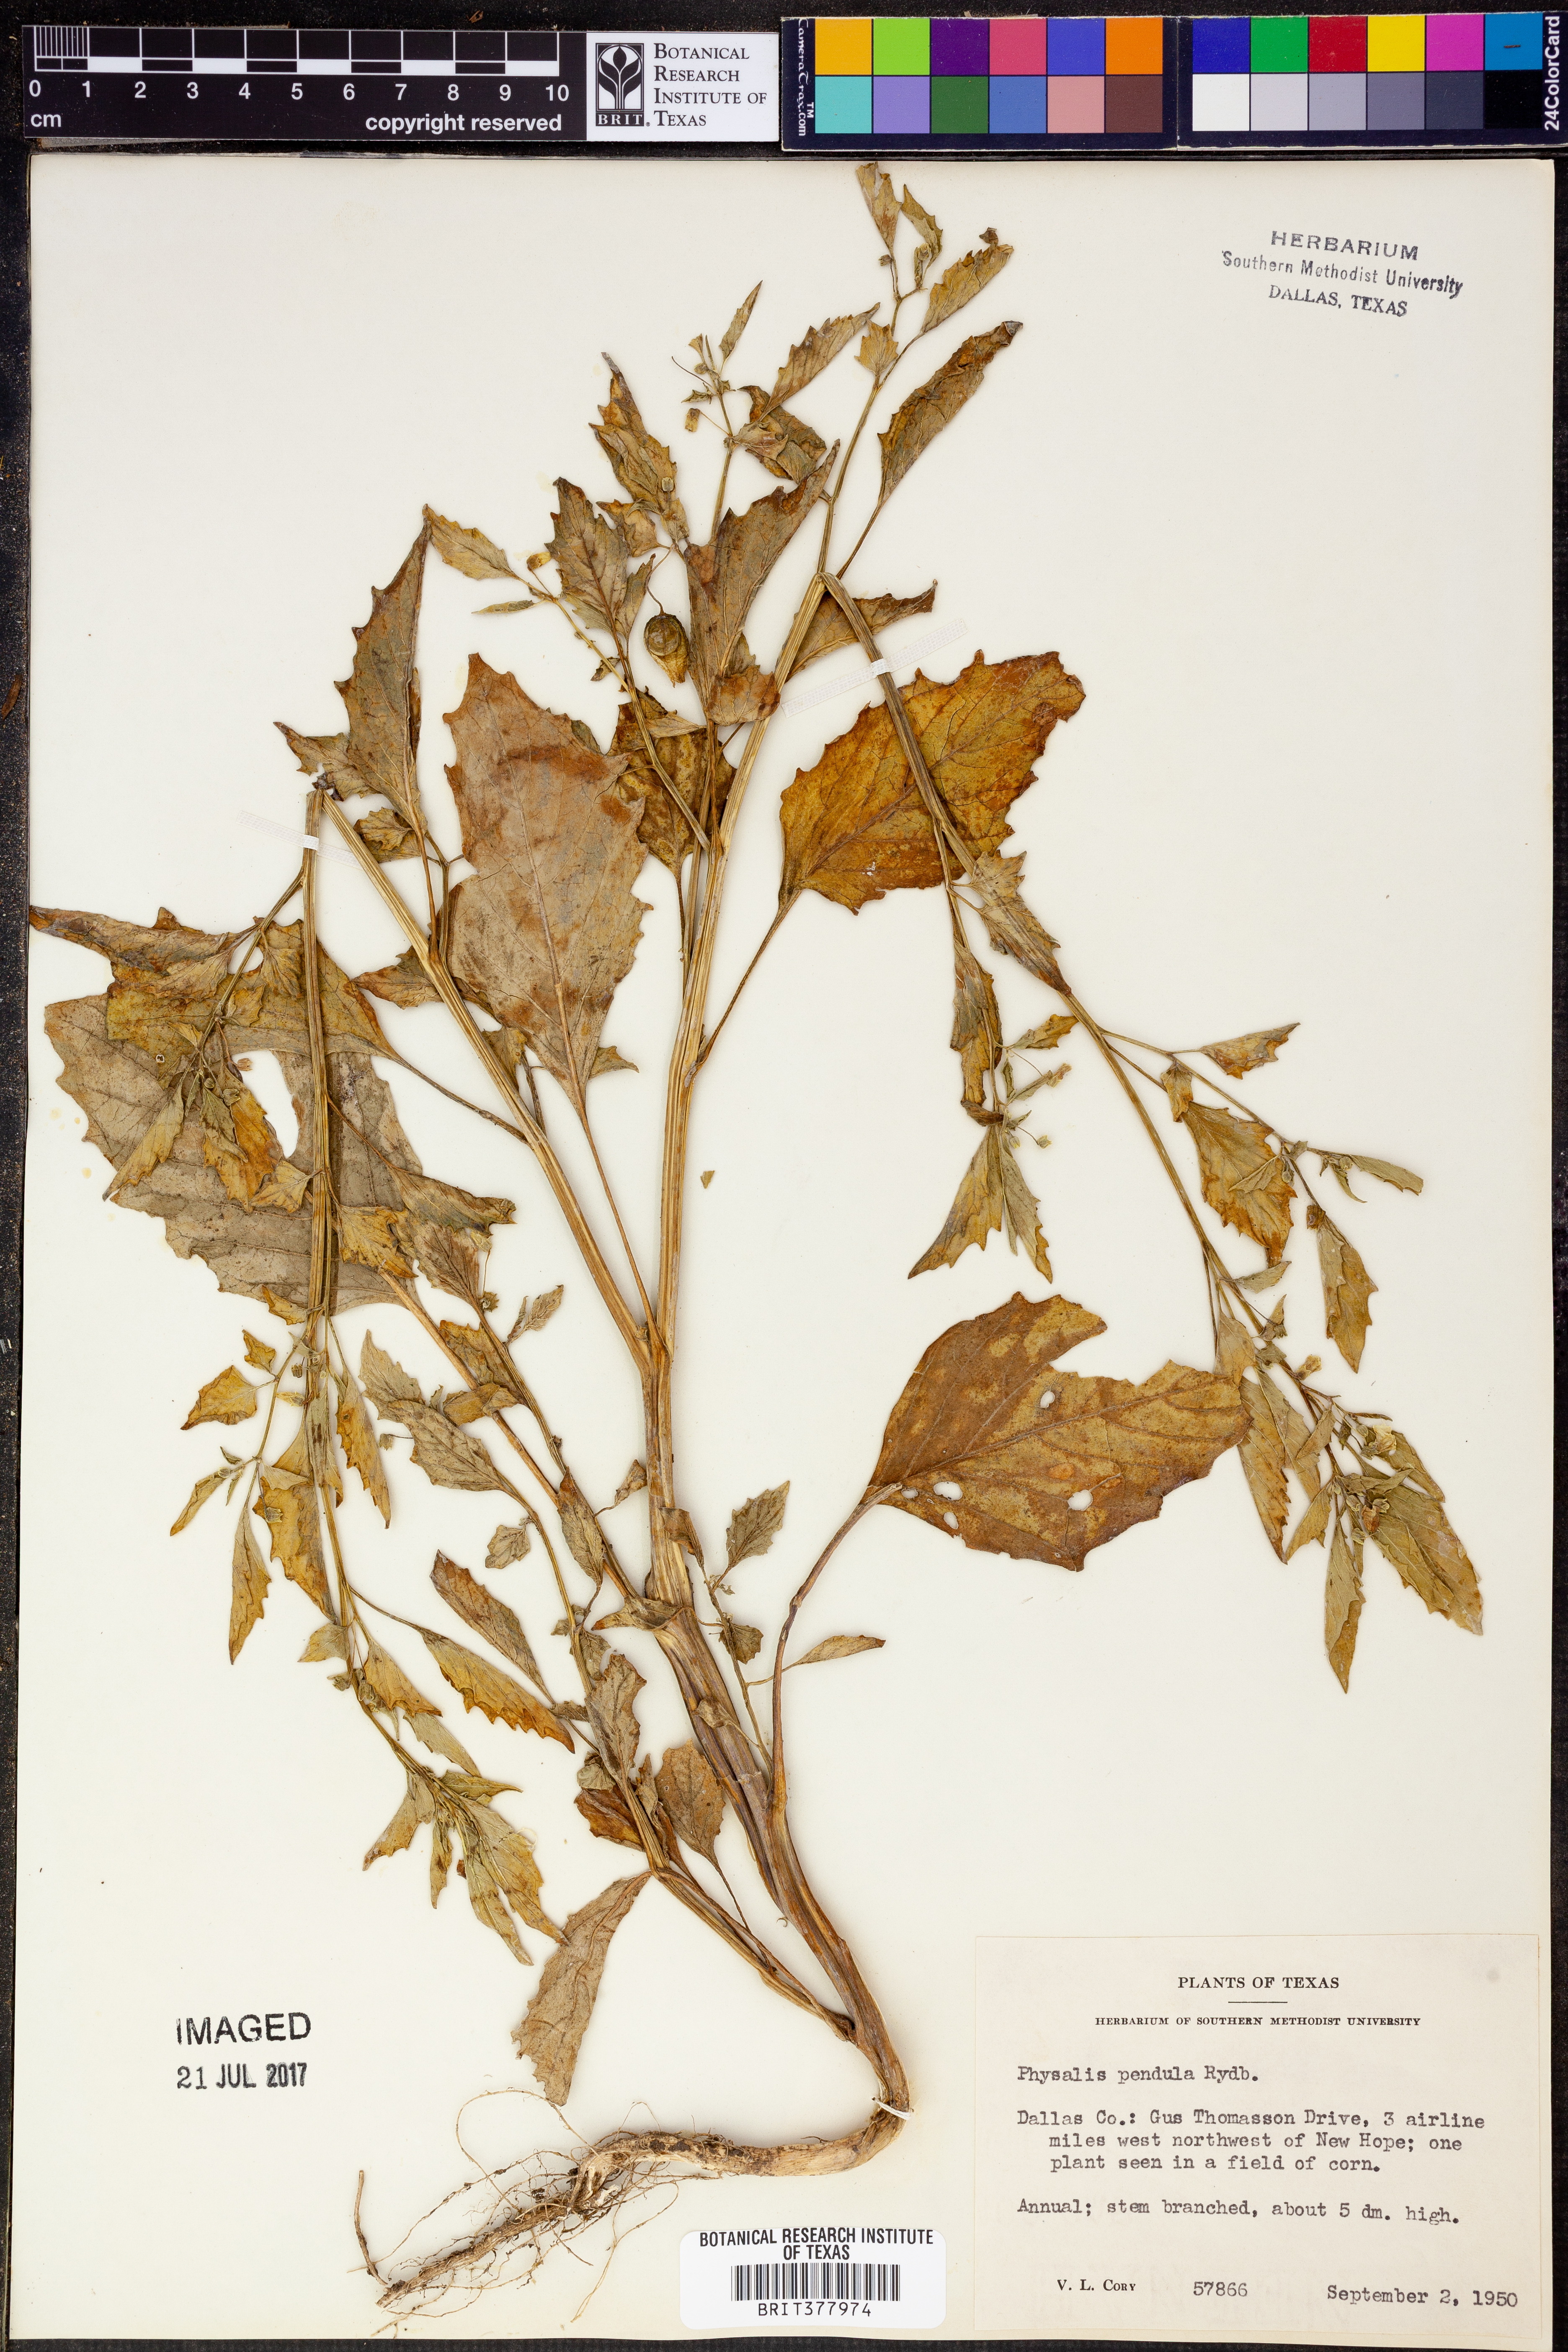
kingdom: Plantae
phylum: Tracheophyta
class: Magnoliopsida
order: Solanales
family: Solanaceae
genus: Physalis
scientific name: Physalis angulata
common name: Angular winter-cherry
